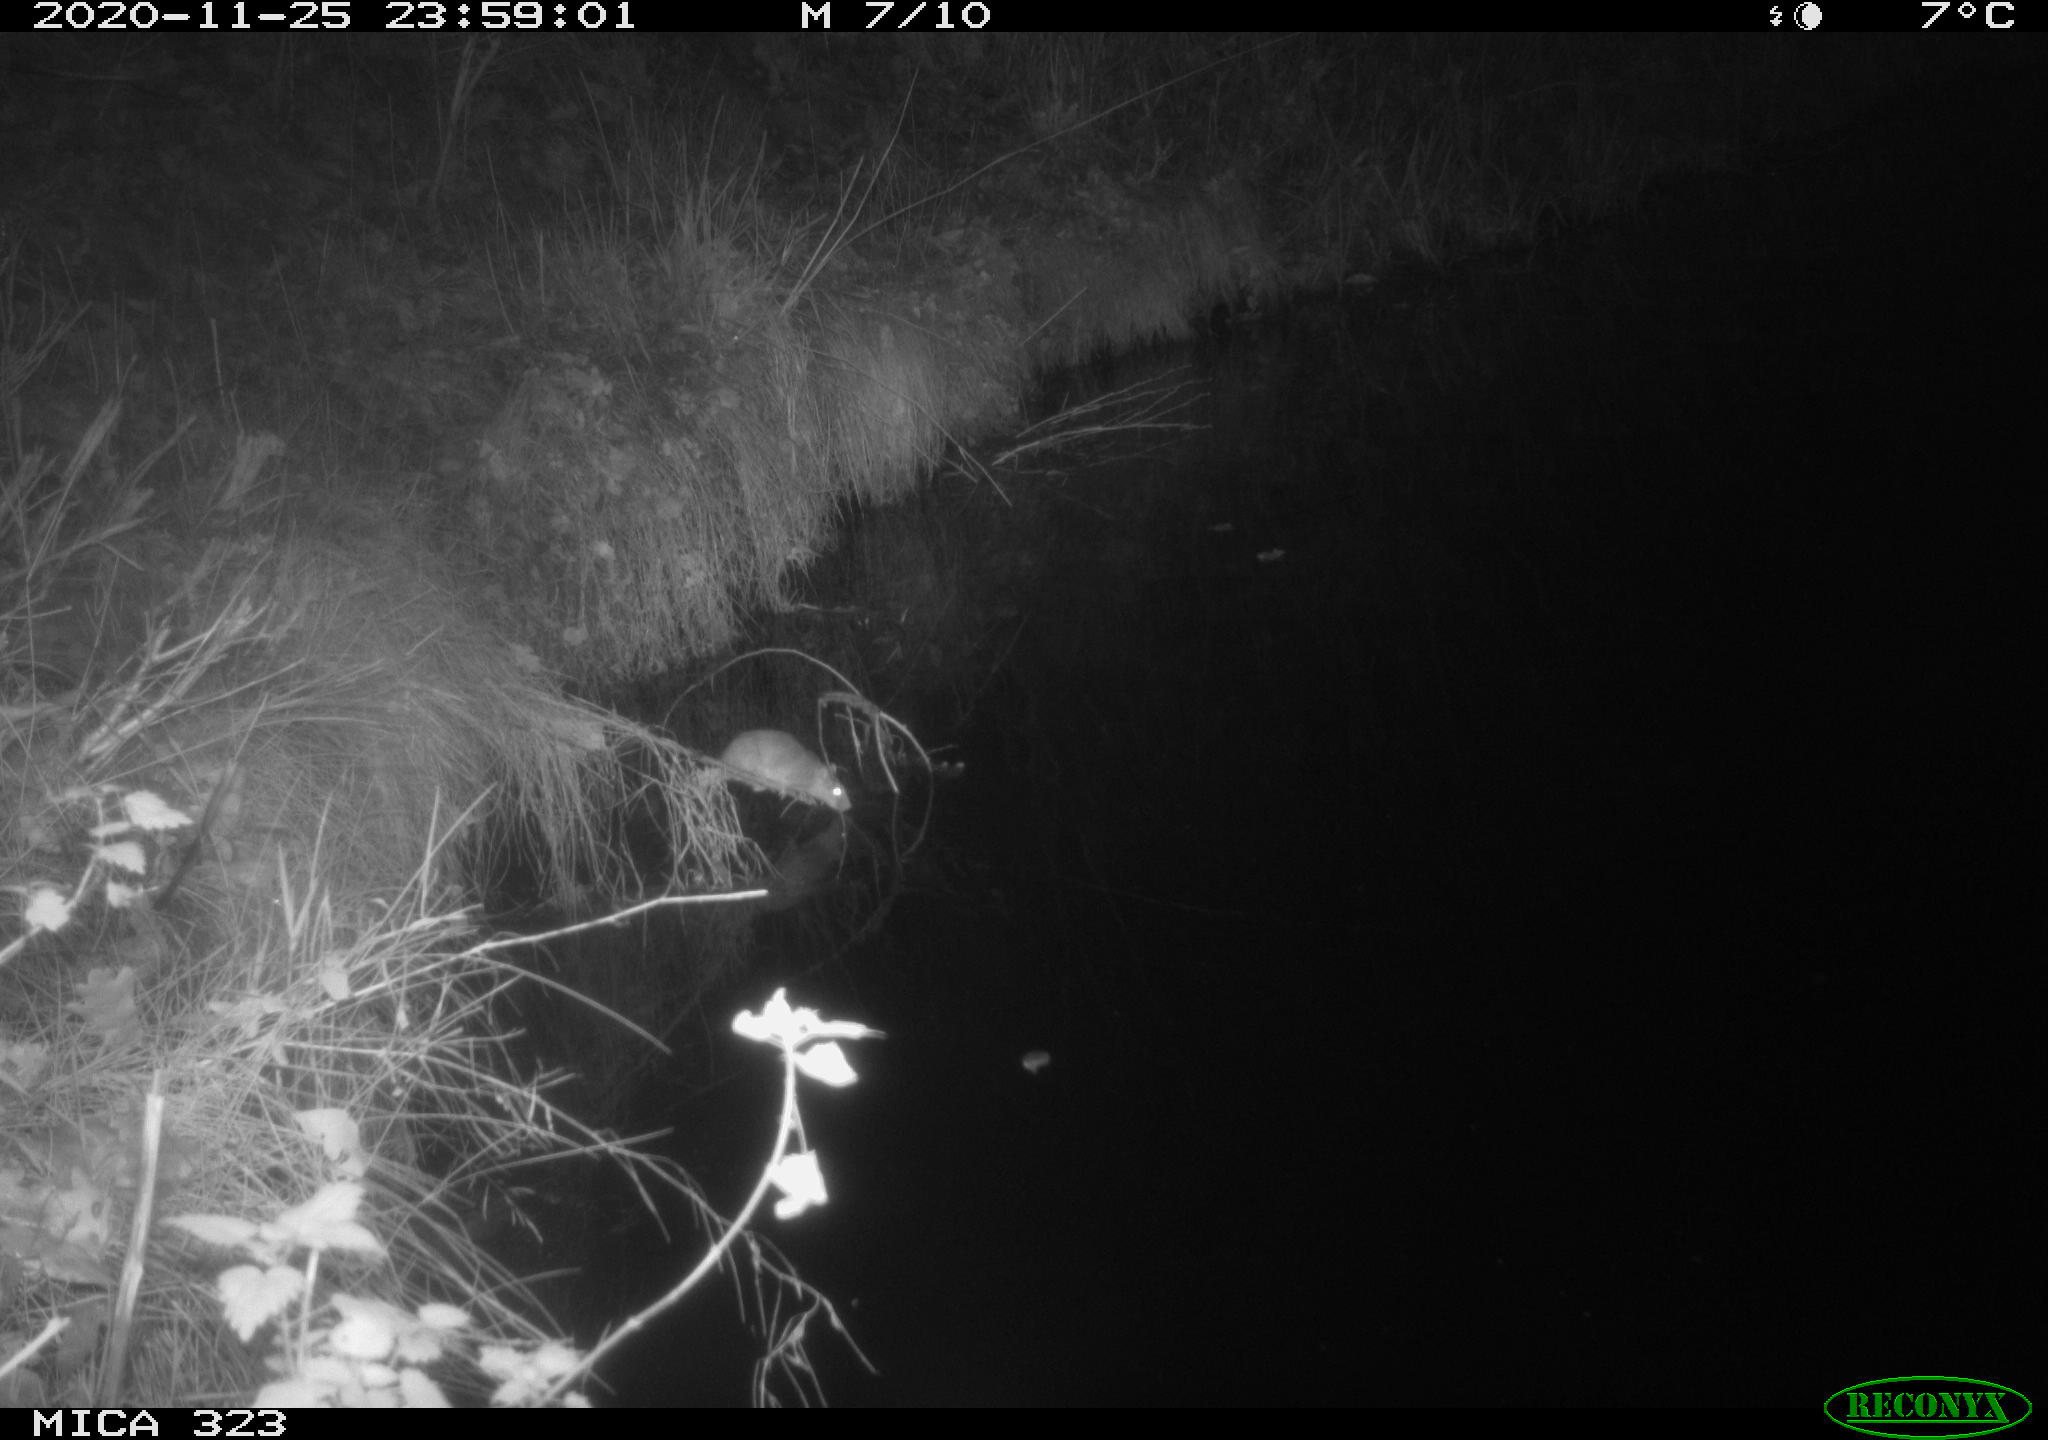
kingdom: Animalia
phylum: Chordata
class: Mammalia
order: Rodentia
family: Muridae
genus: Rattus
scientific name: Rattus norvegicus
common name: Brown rat
